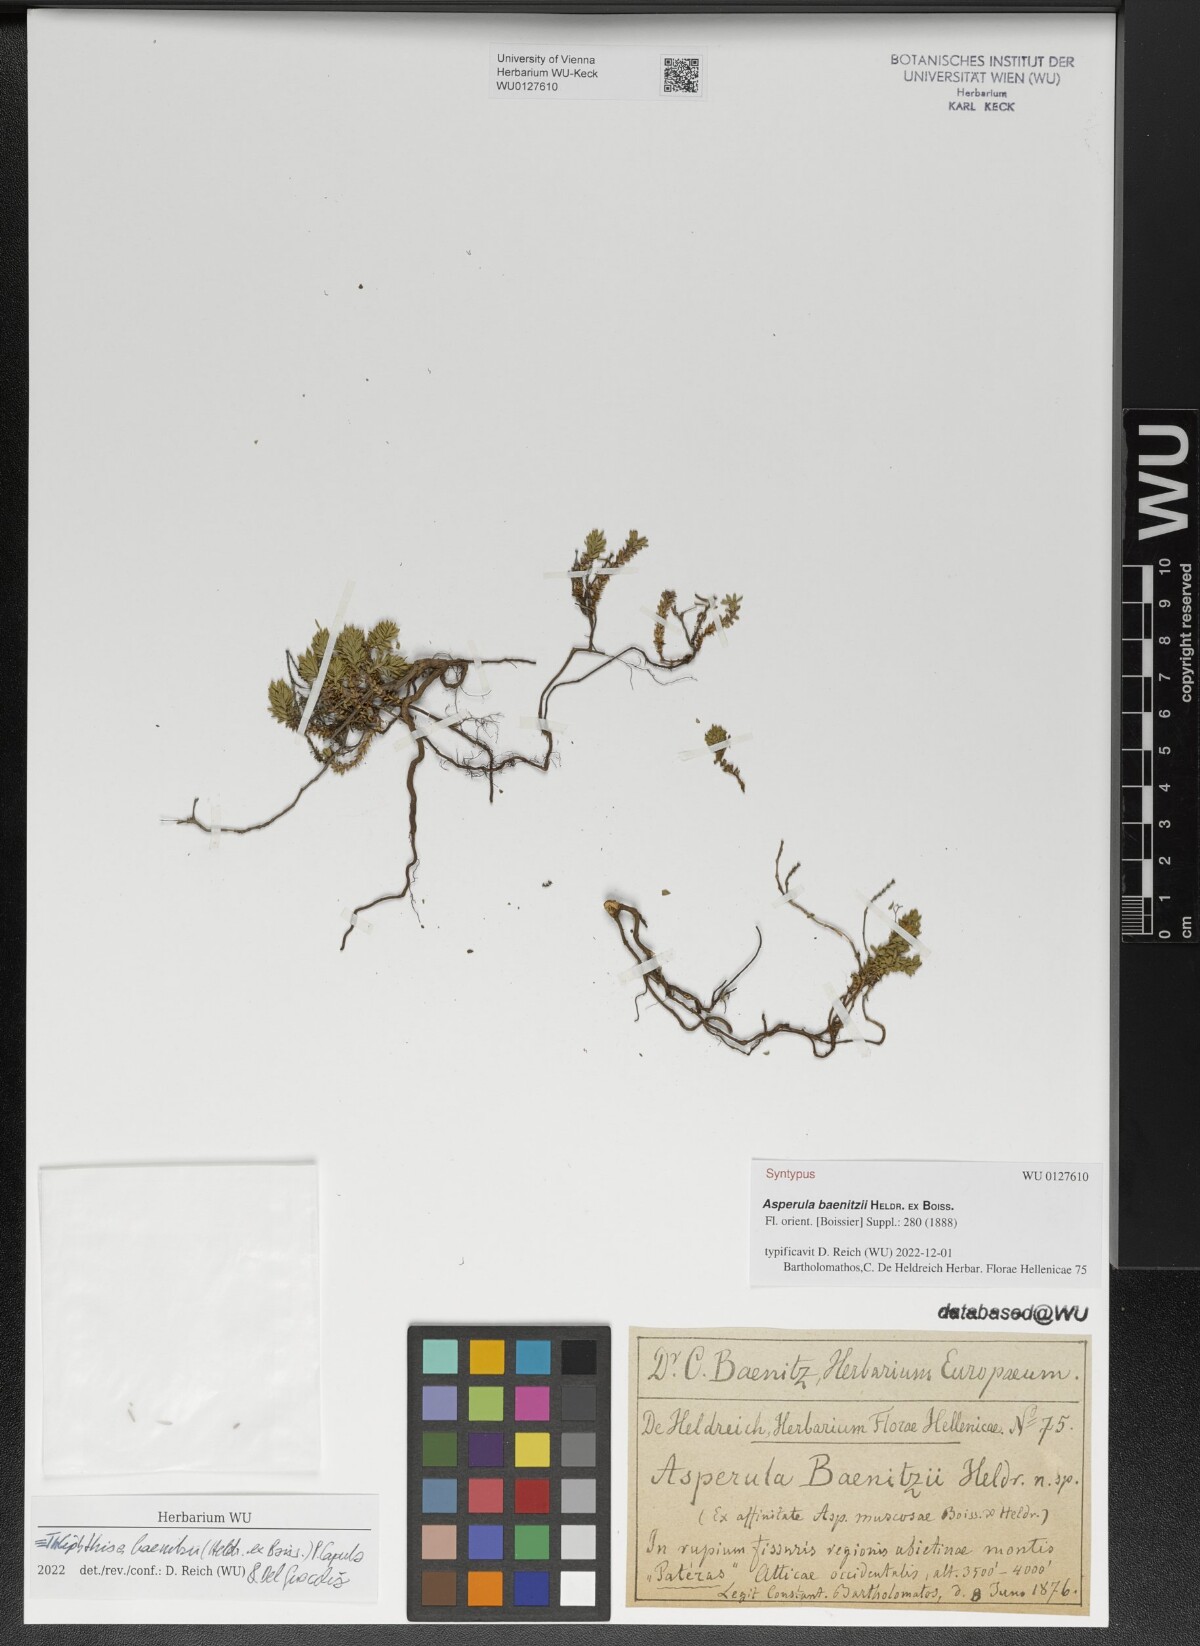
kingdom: Plantae
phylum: Tracheophyta
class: Magnoliopsida
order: Gentianales
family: Rubiaceae
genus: Thliphthisa
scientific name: Thliphthisa baenitzii
